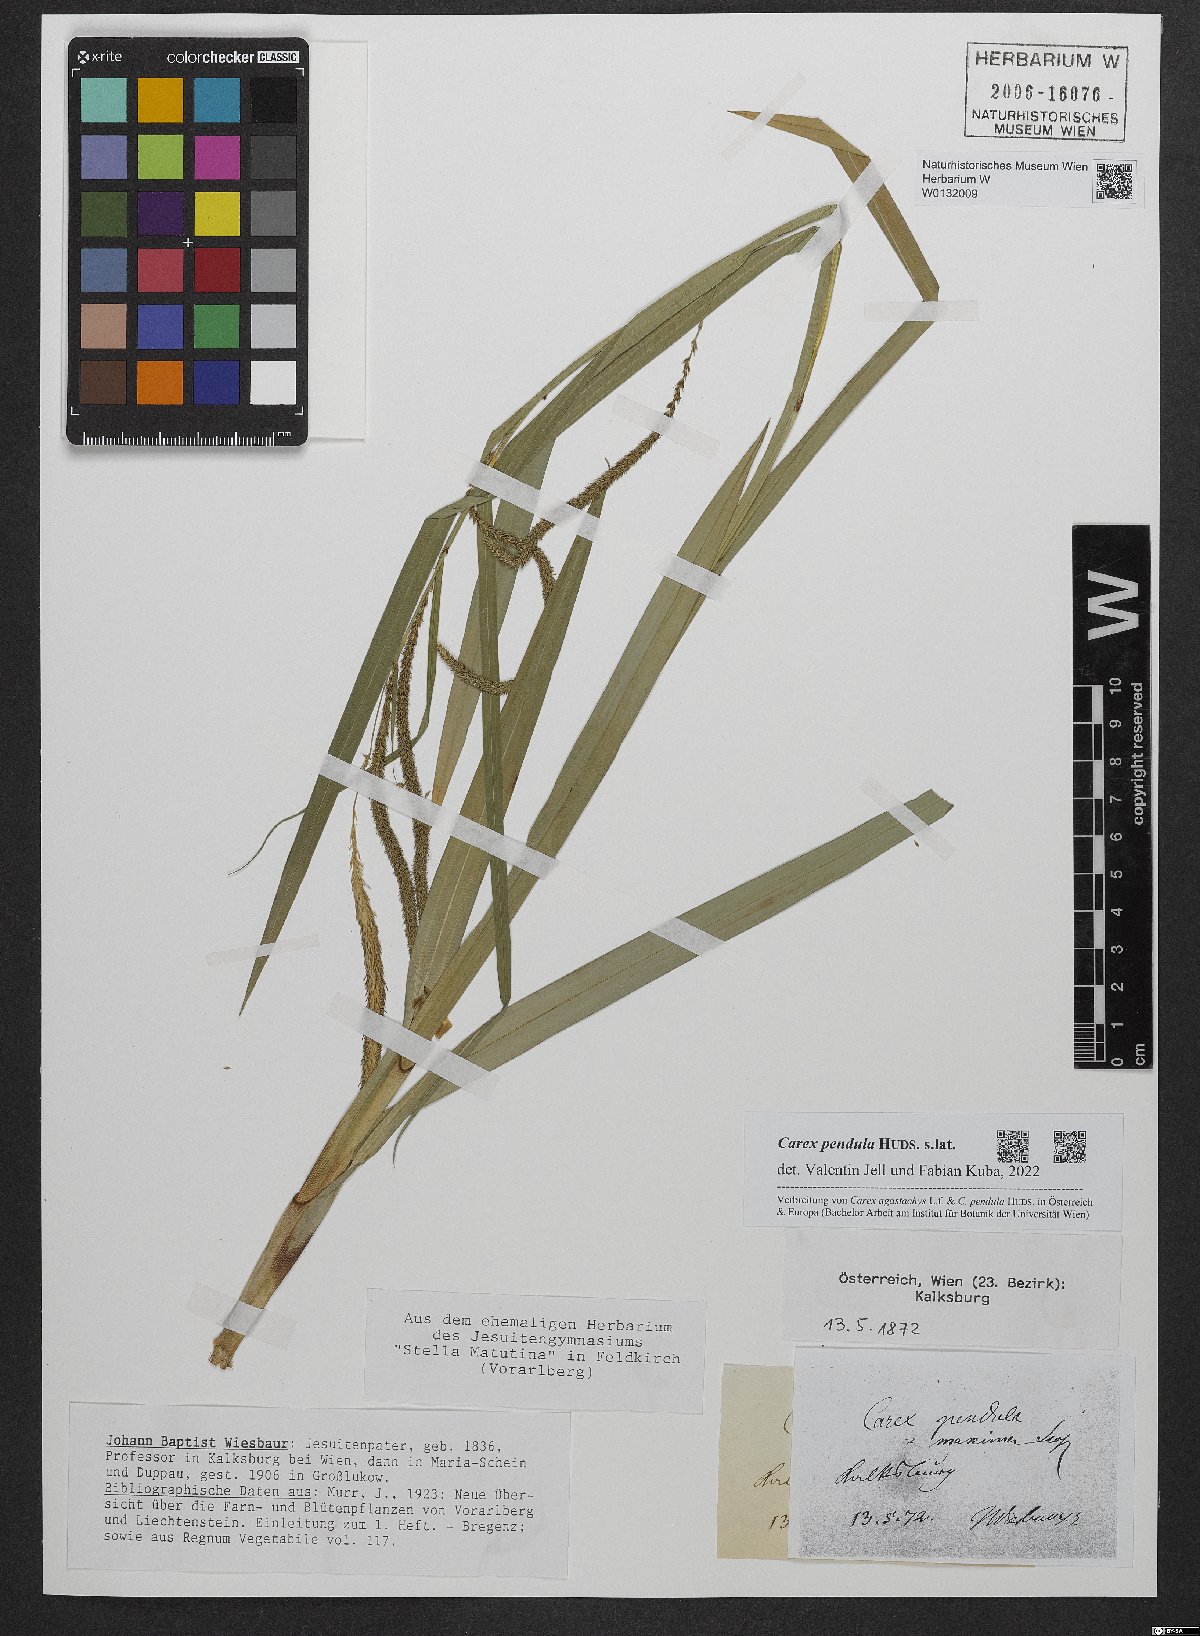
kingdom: Plantae
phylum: Tracheophyta
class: Liliopsida
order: Poales
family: Cyperaceae
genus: Carex
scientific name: Carex pendula
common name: Pendulous sedge
